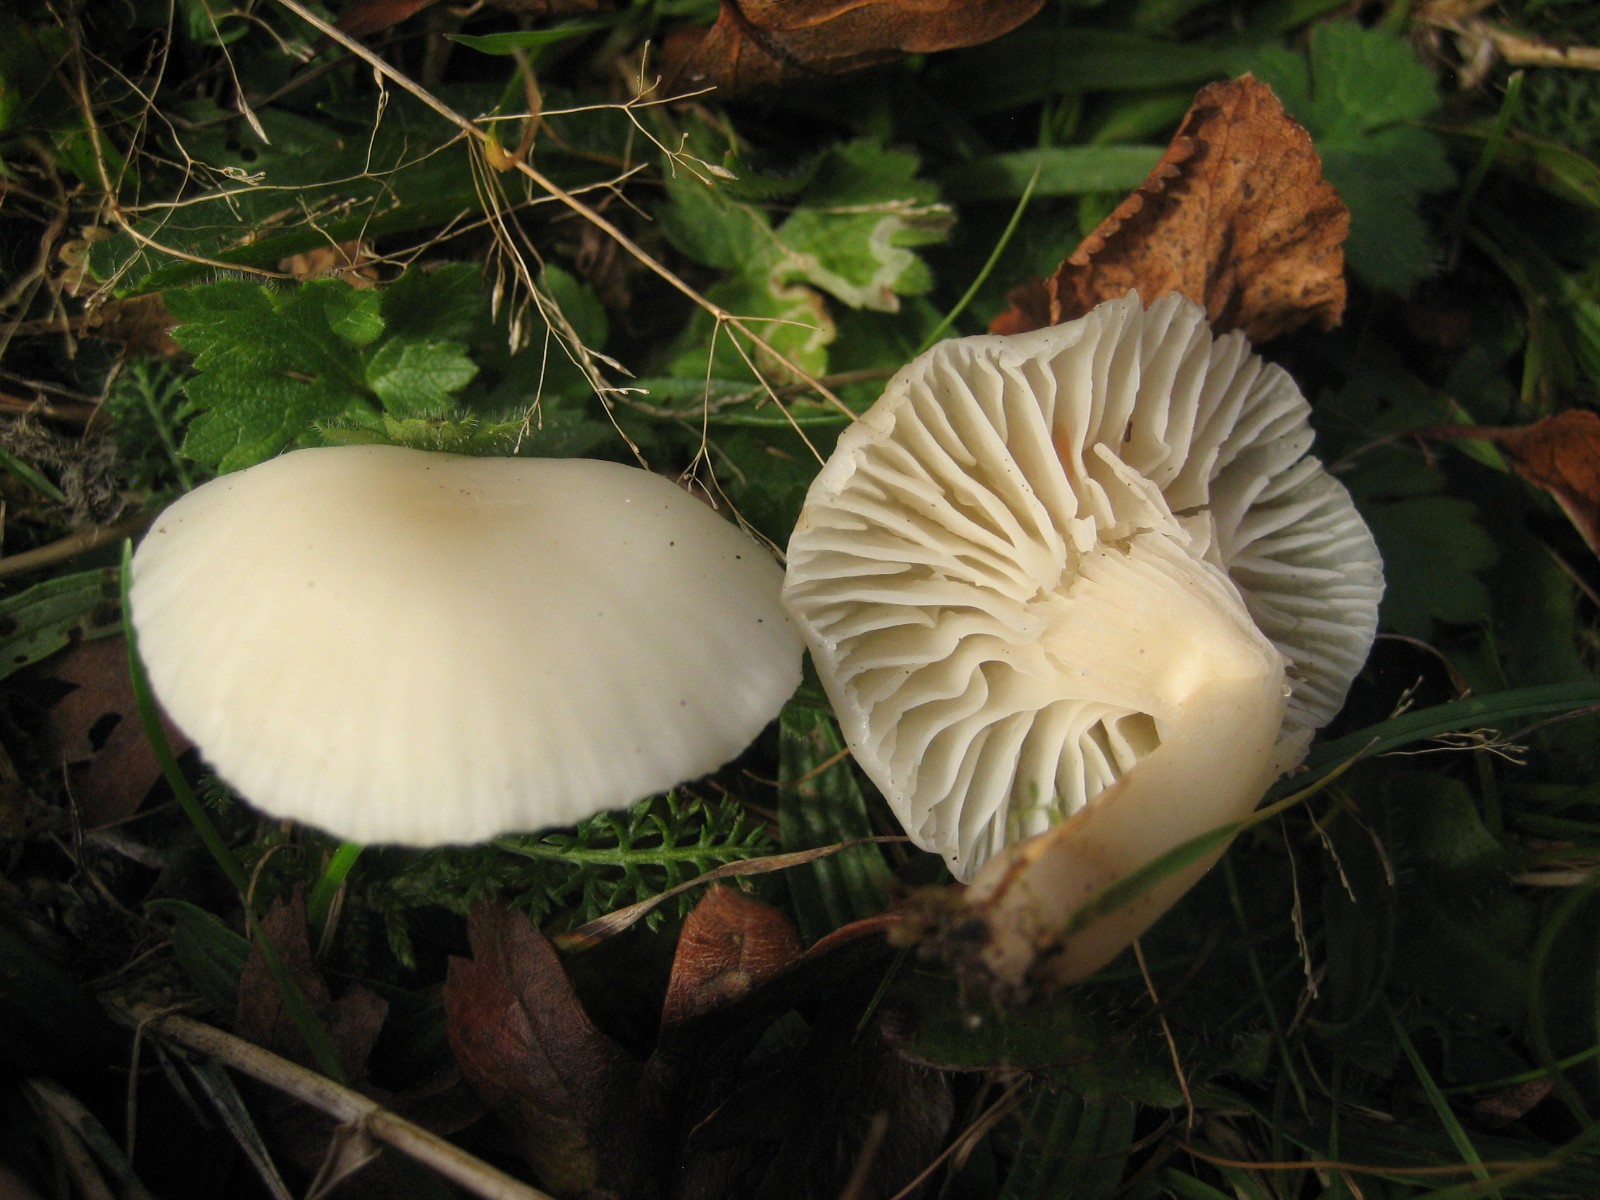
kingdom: Fungi
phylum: Basidiomycota
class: Agaricomycetes
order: Agaricales
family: Hygrophoraceae
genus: Cuphophyllus
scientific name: Cuphophyllus
